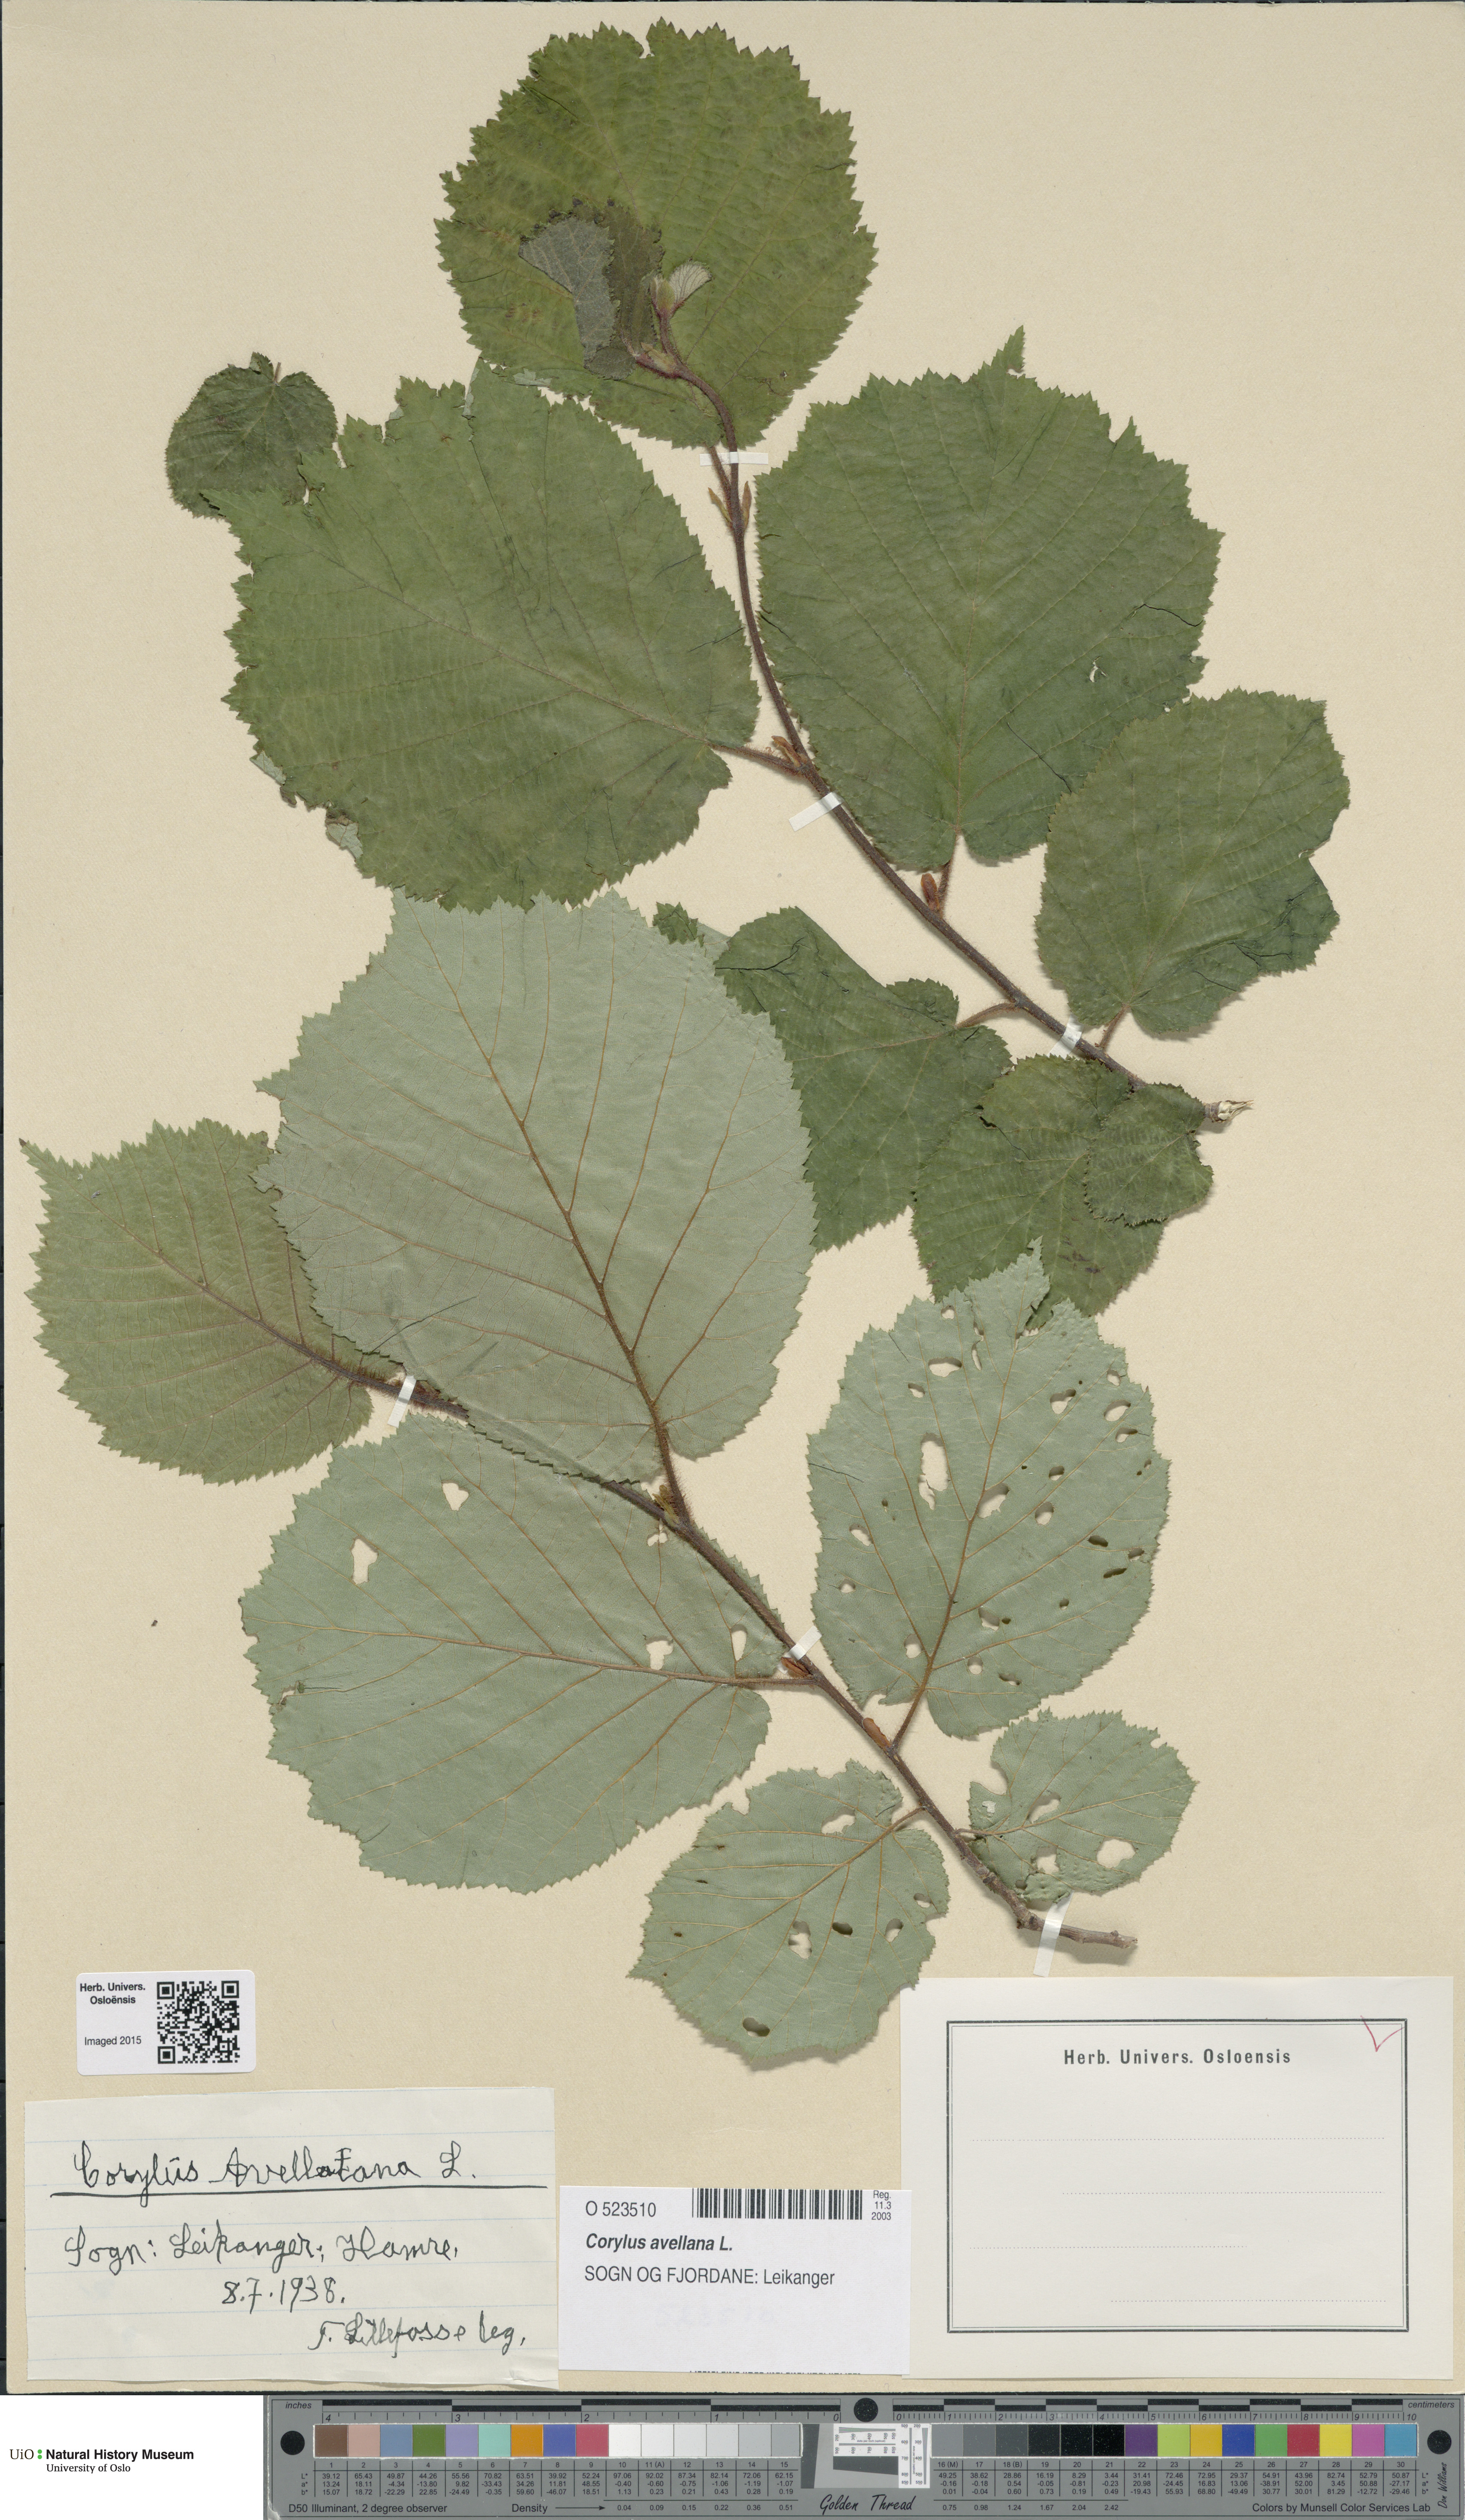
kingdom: Plantae
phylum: Tracheophyta
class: Magnoliopsida
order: Fagales
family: Betulaceae
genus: Corylus
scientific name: Corylus avellana
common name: European hazel
